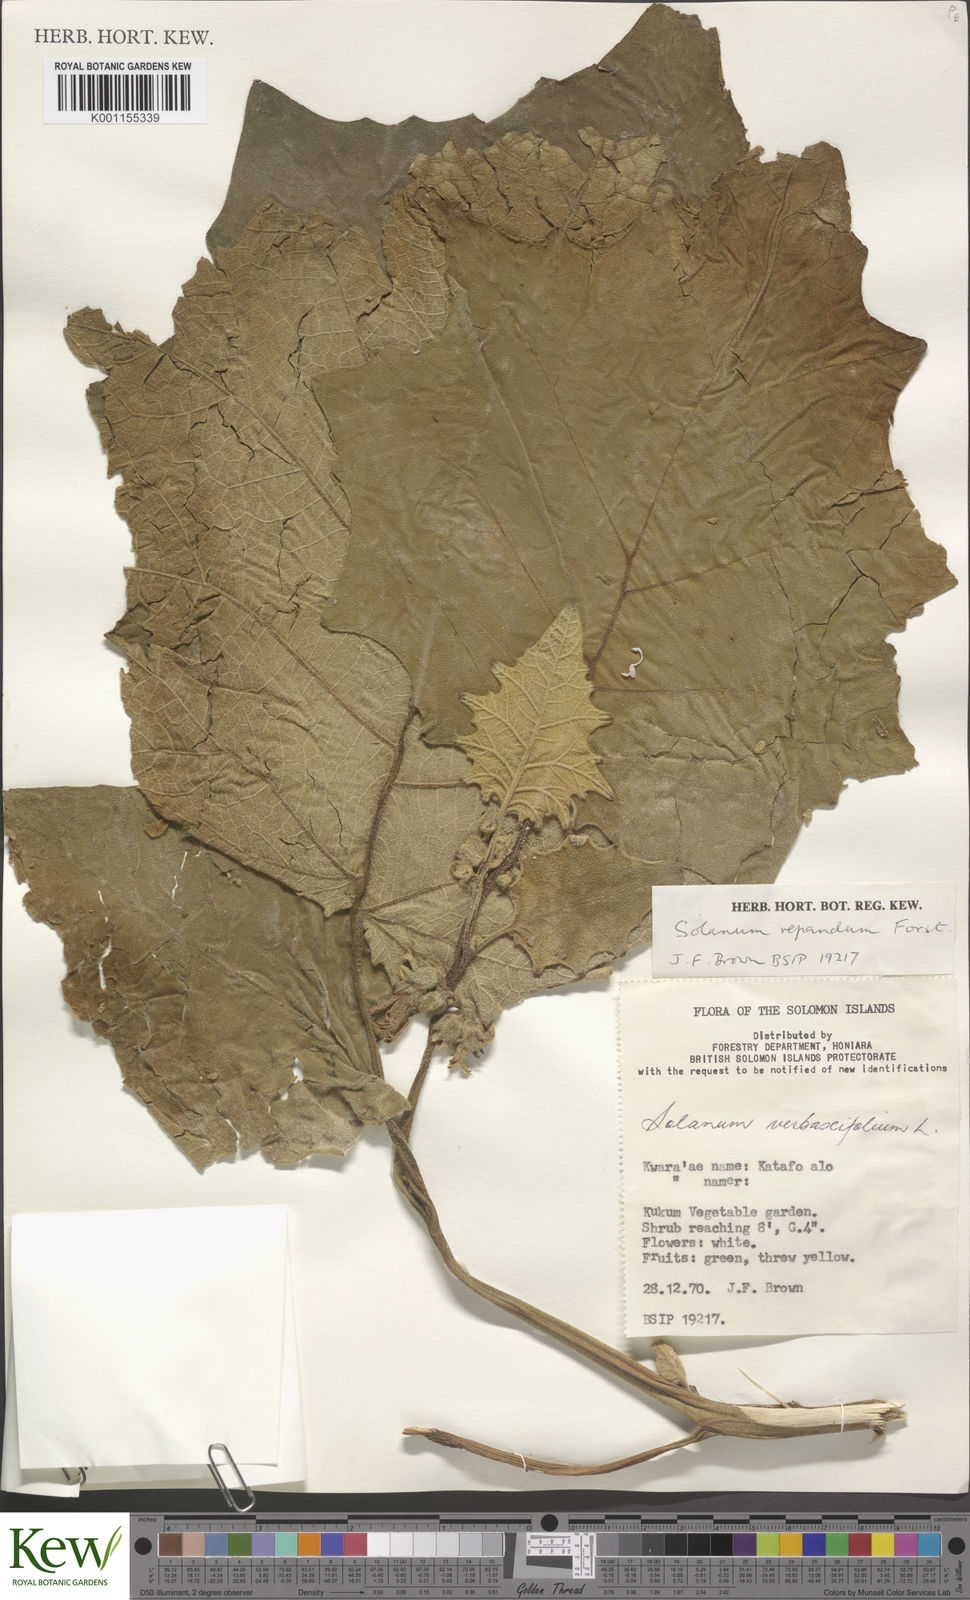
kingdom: Plantae
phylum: Tracheophyta
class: Magnoliopsida
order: Solanales
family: Solanaceae
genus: Solanum
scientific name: Solanum repandum
